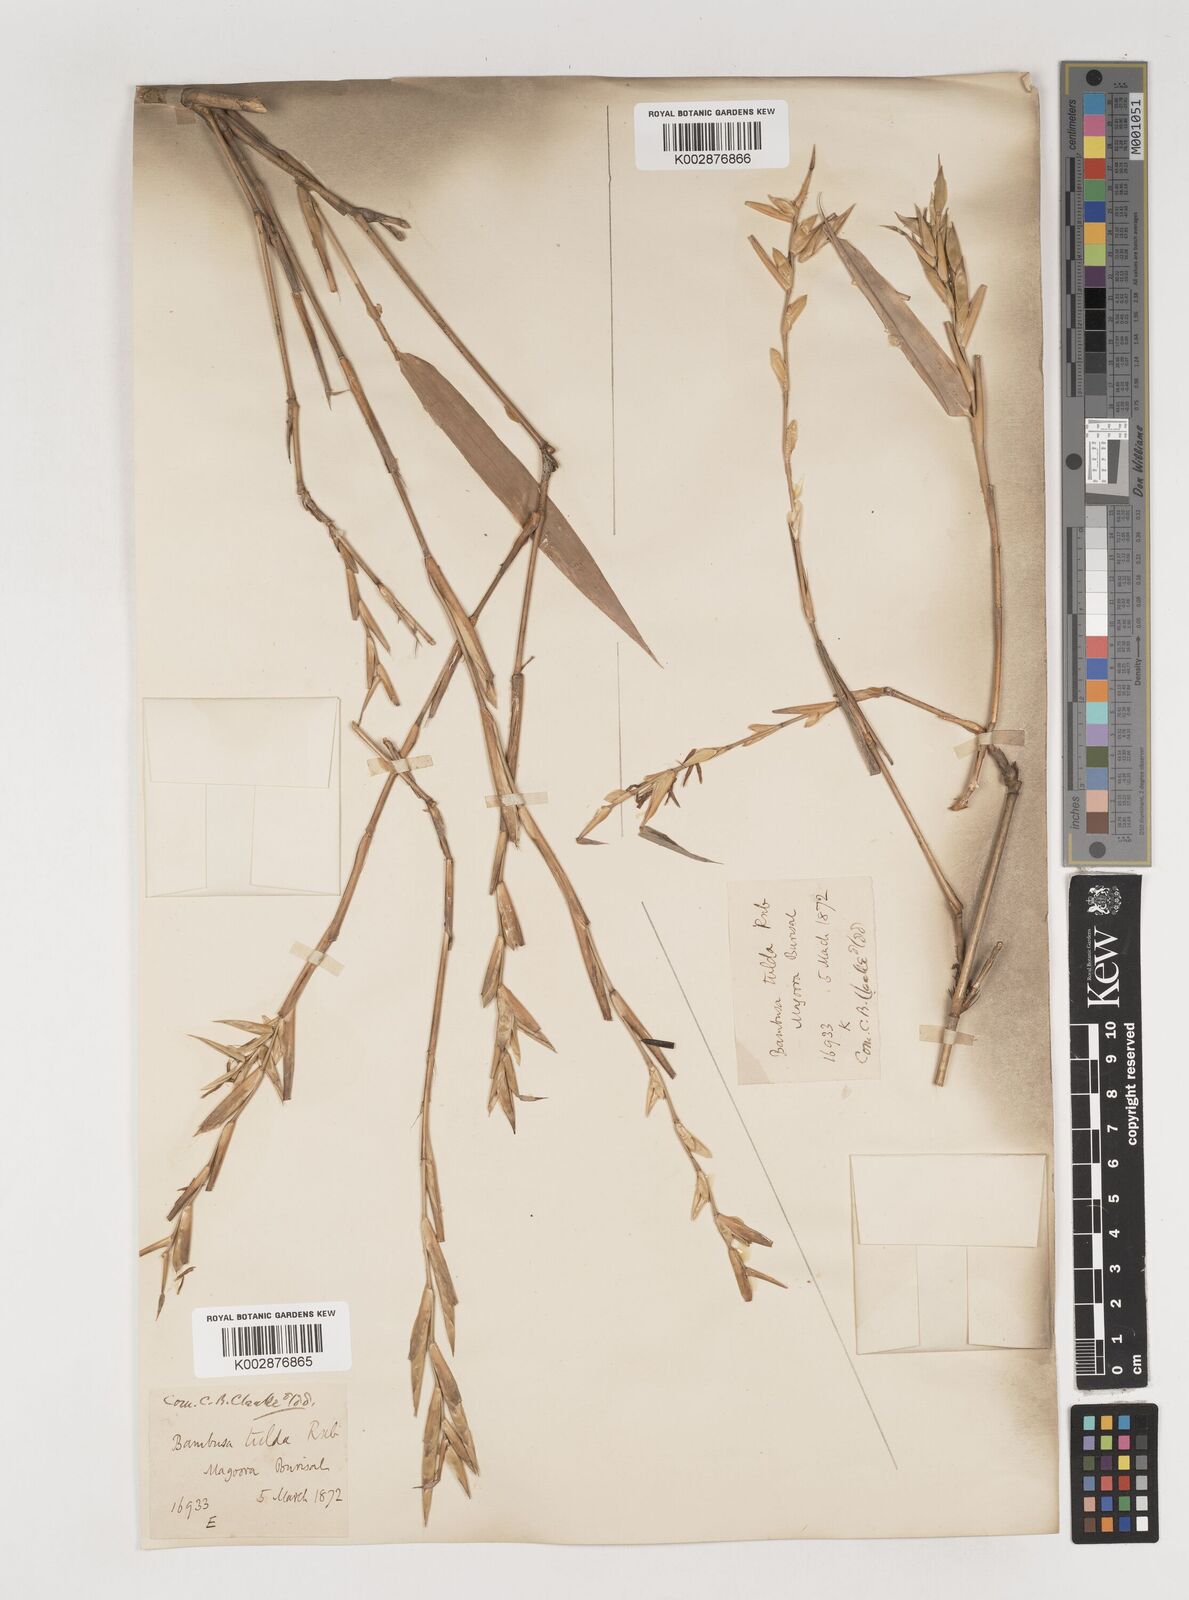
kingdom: Plantae
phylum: Tracheophyta
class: Liliopsida
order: Poales
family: Poaceae
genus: Bambusa
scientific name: Bambusa tuldoides
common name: Verdant bamboo
